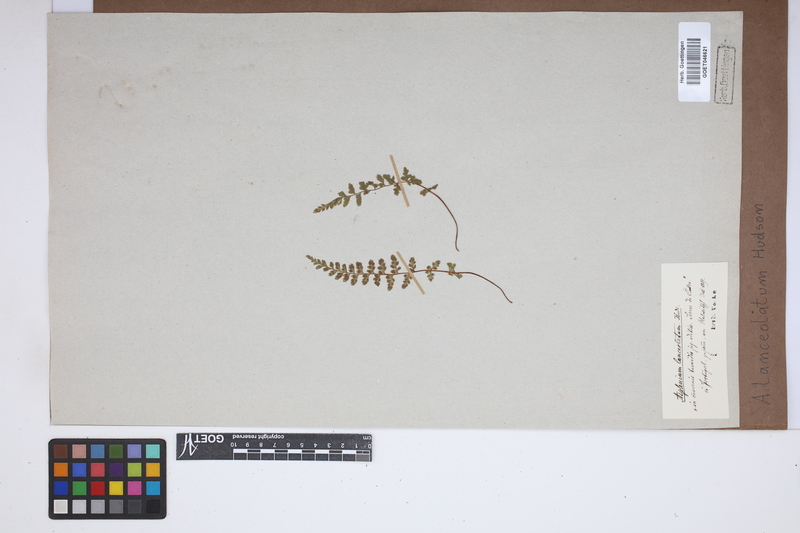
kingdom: Plantae
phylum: Tracheophyta
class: Polypodiopsida
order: Polypodiales
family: Aspleniaceae
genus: Asplenium
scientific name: Asplenium obovatum
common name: Lanceolate spleenwort
